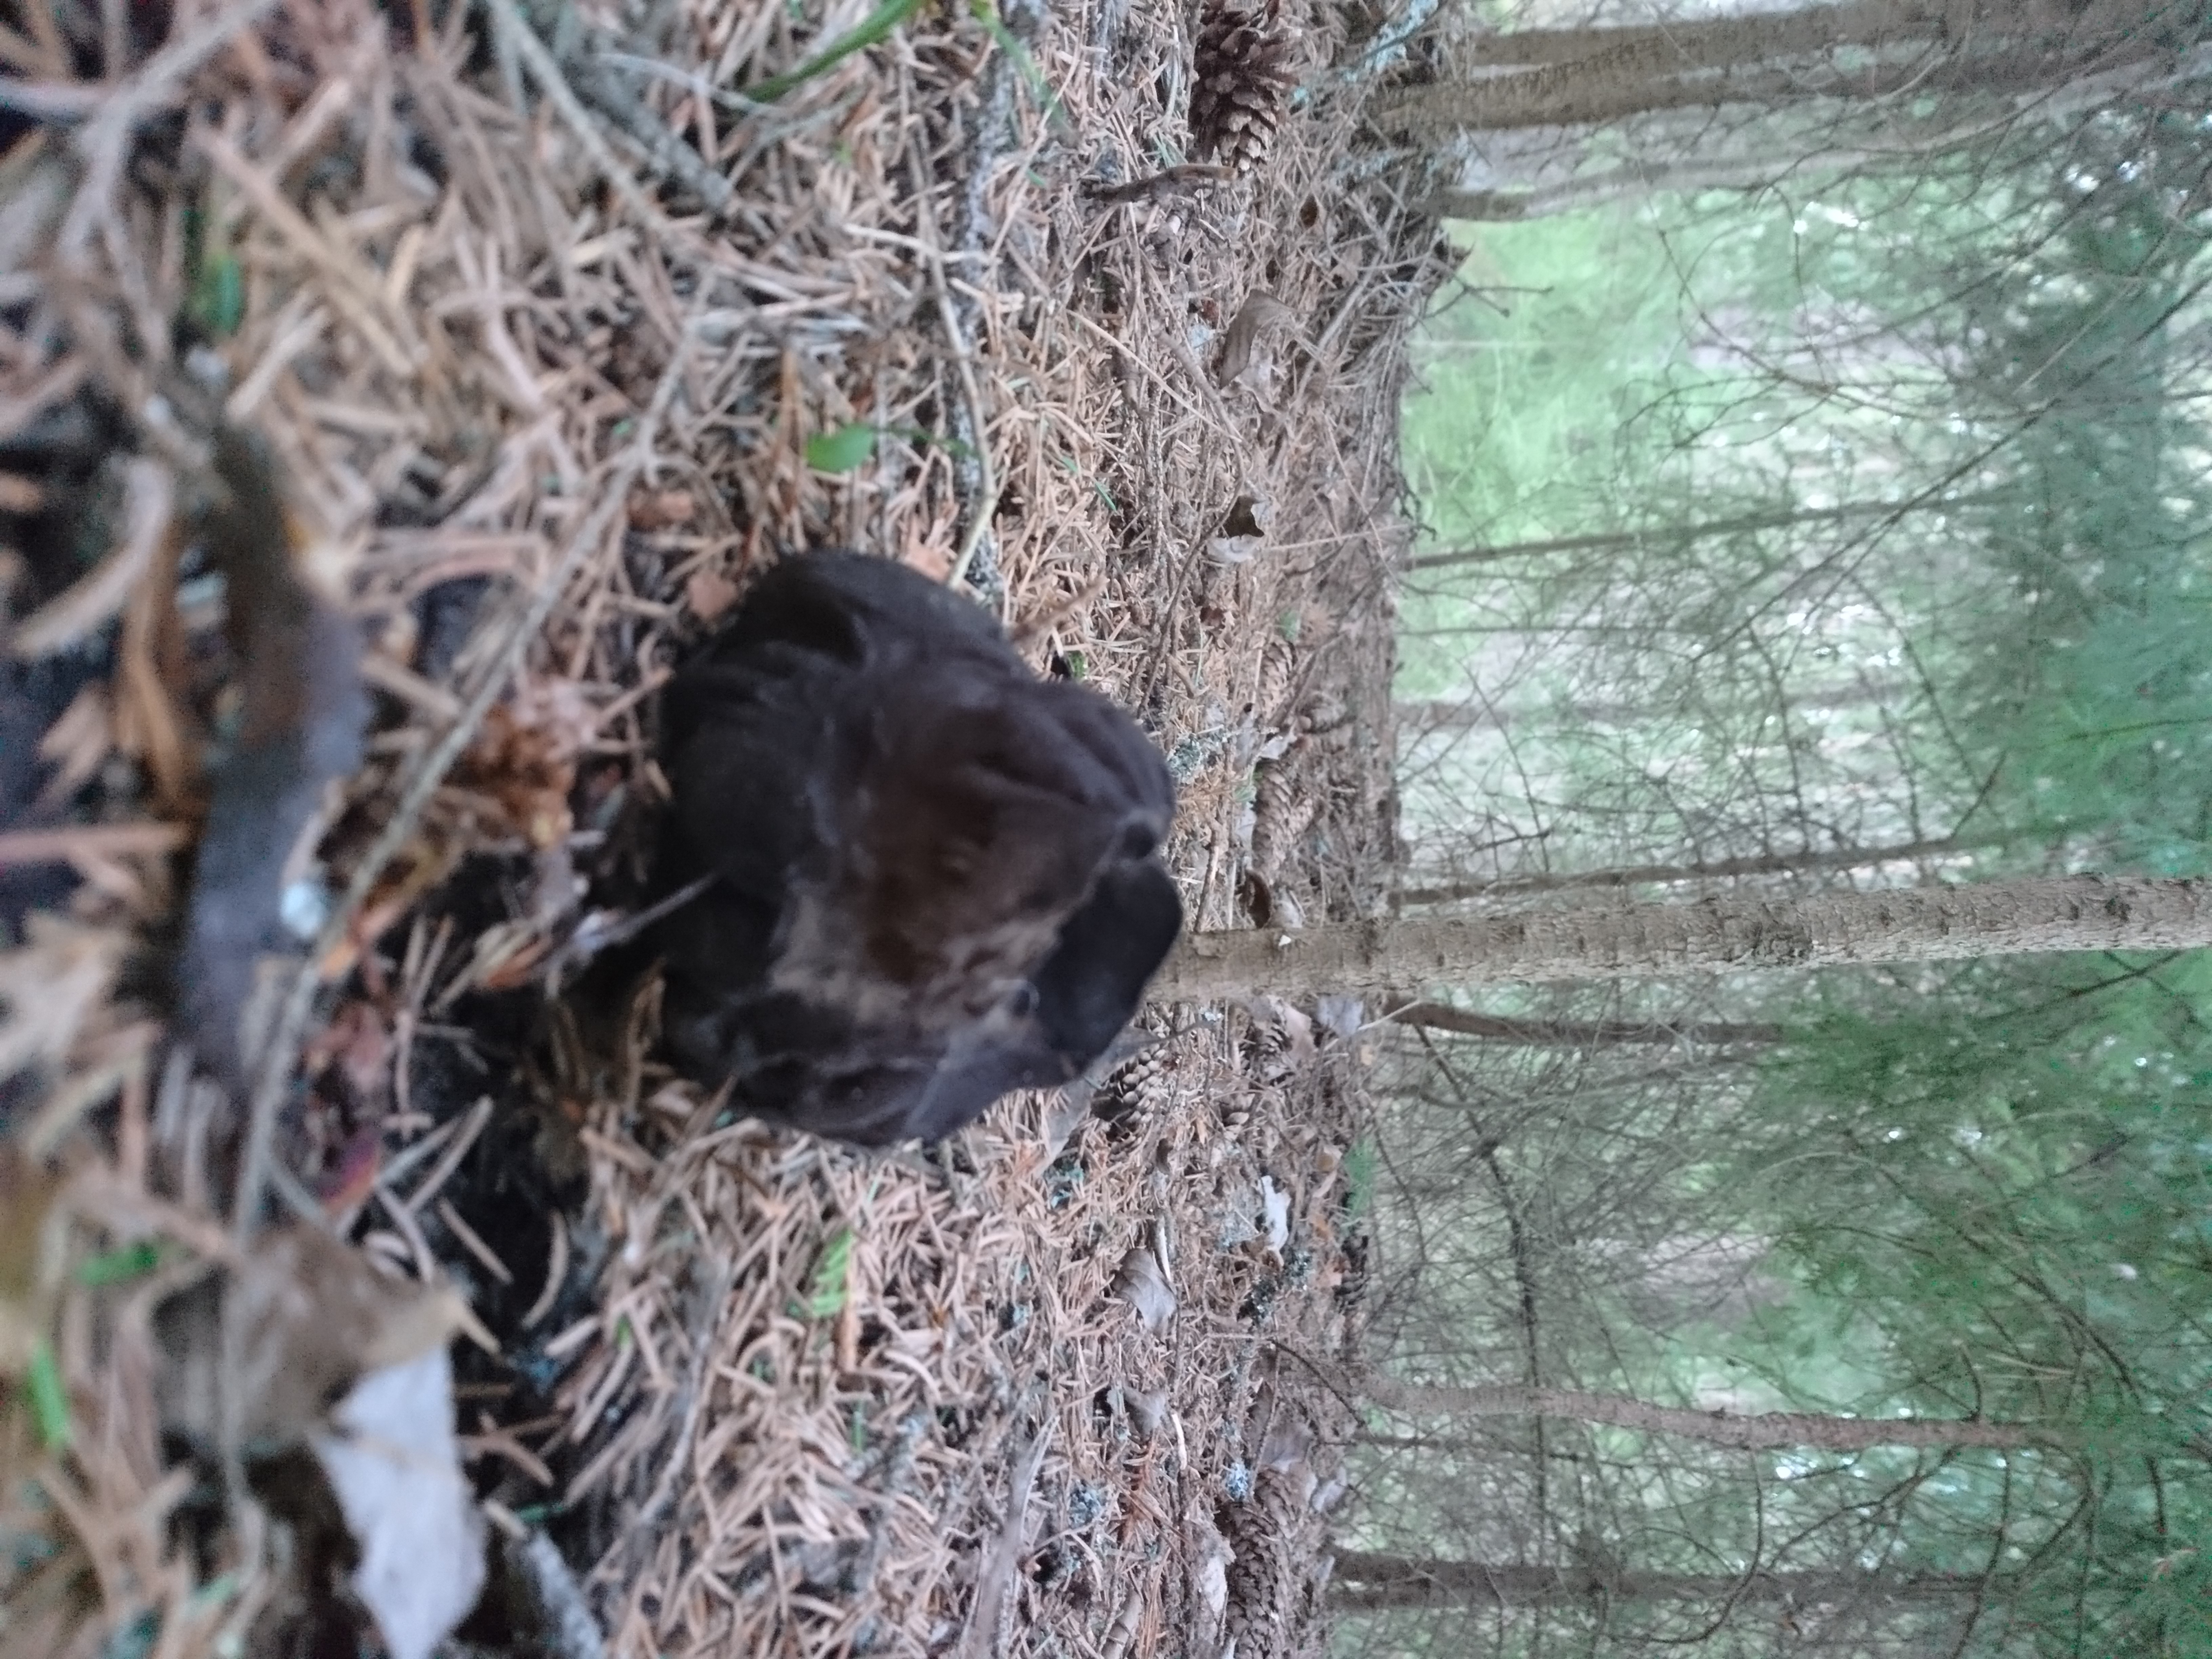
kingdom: Fungi
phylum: Ascomycota
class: Pezizomycetes
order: Pezizales
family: Sarcosomataceae
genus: Sarcosoma
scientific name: Sarcosoma globosum
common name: Charred-pancake cup
